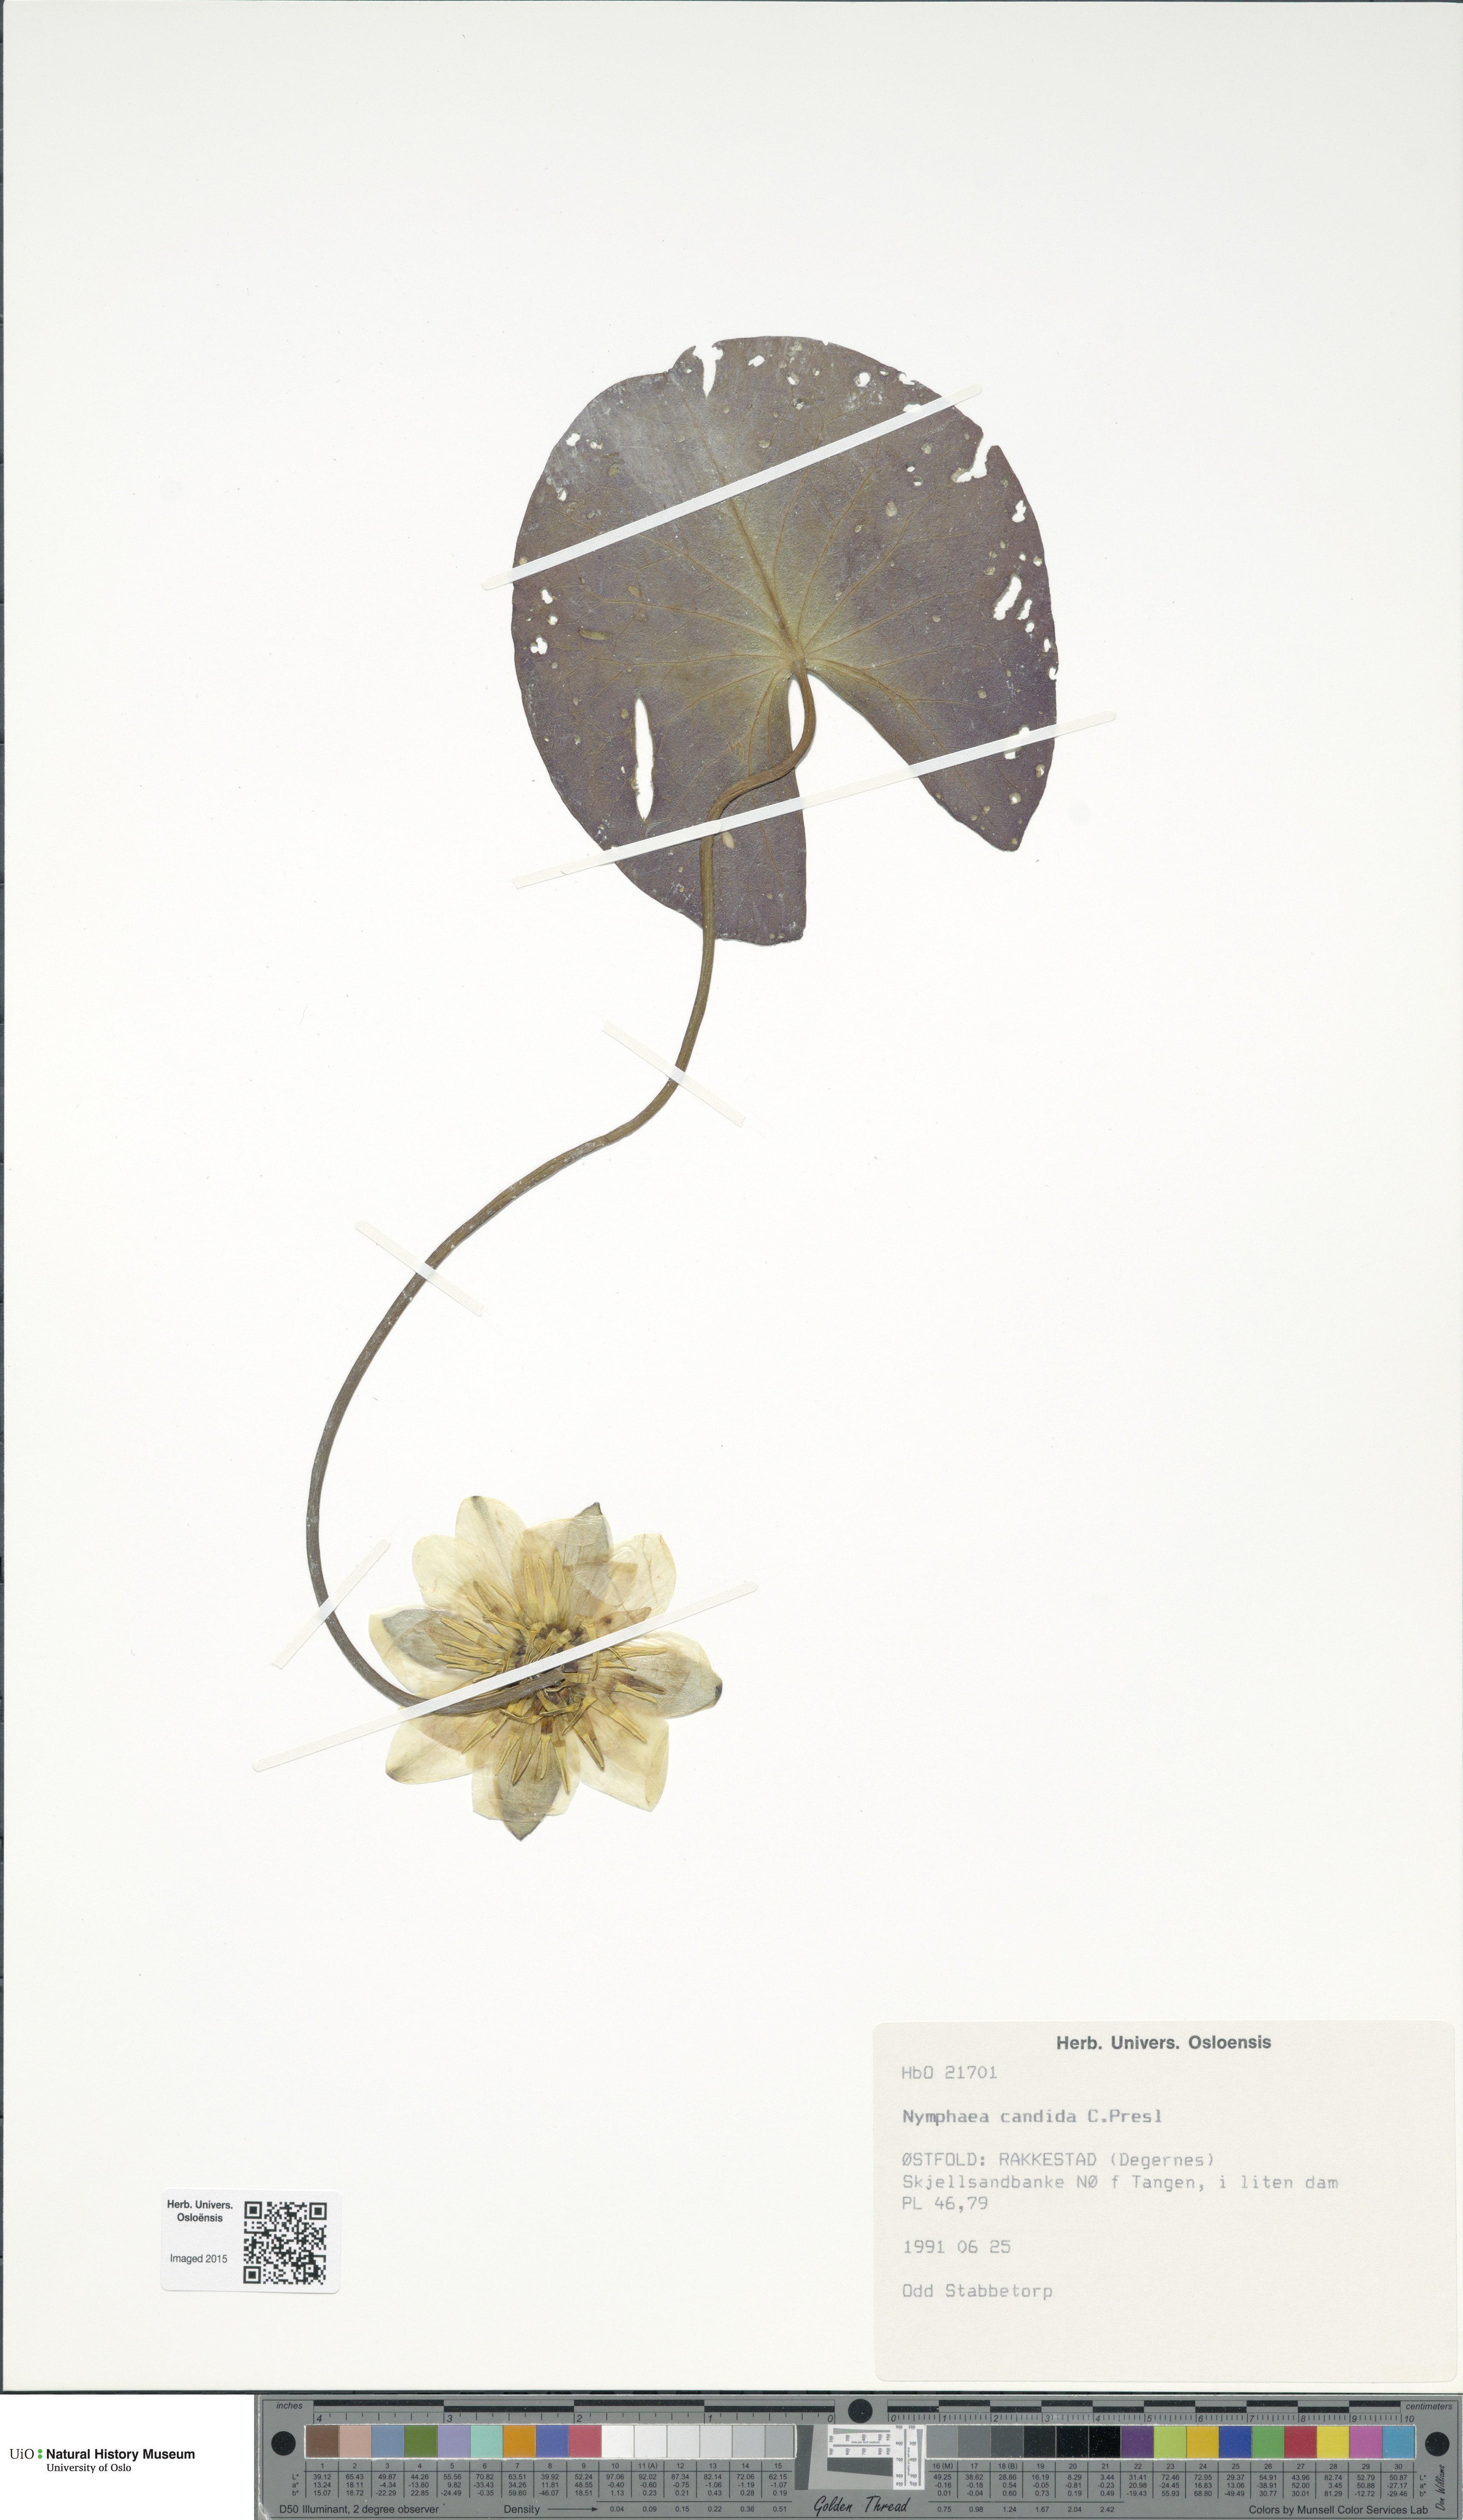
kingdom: Plantae
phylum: Tracheophyta
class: Magnoliopsida
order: Nymphaeales
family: Nymphaeaceae
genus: Nymphaea
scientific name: Nymphaea candida
